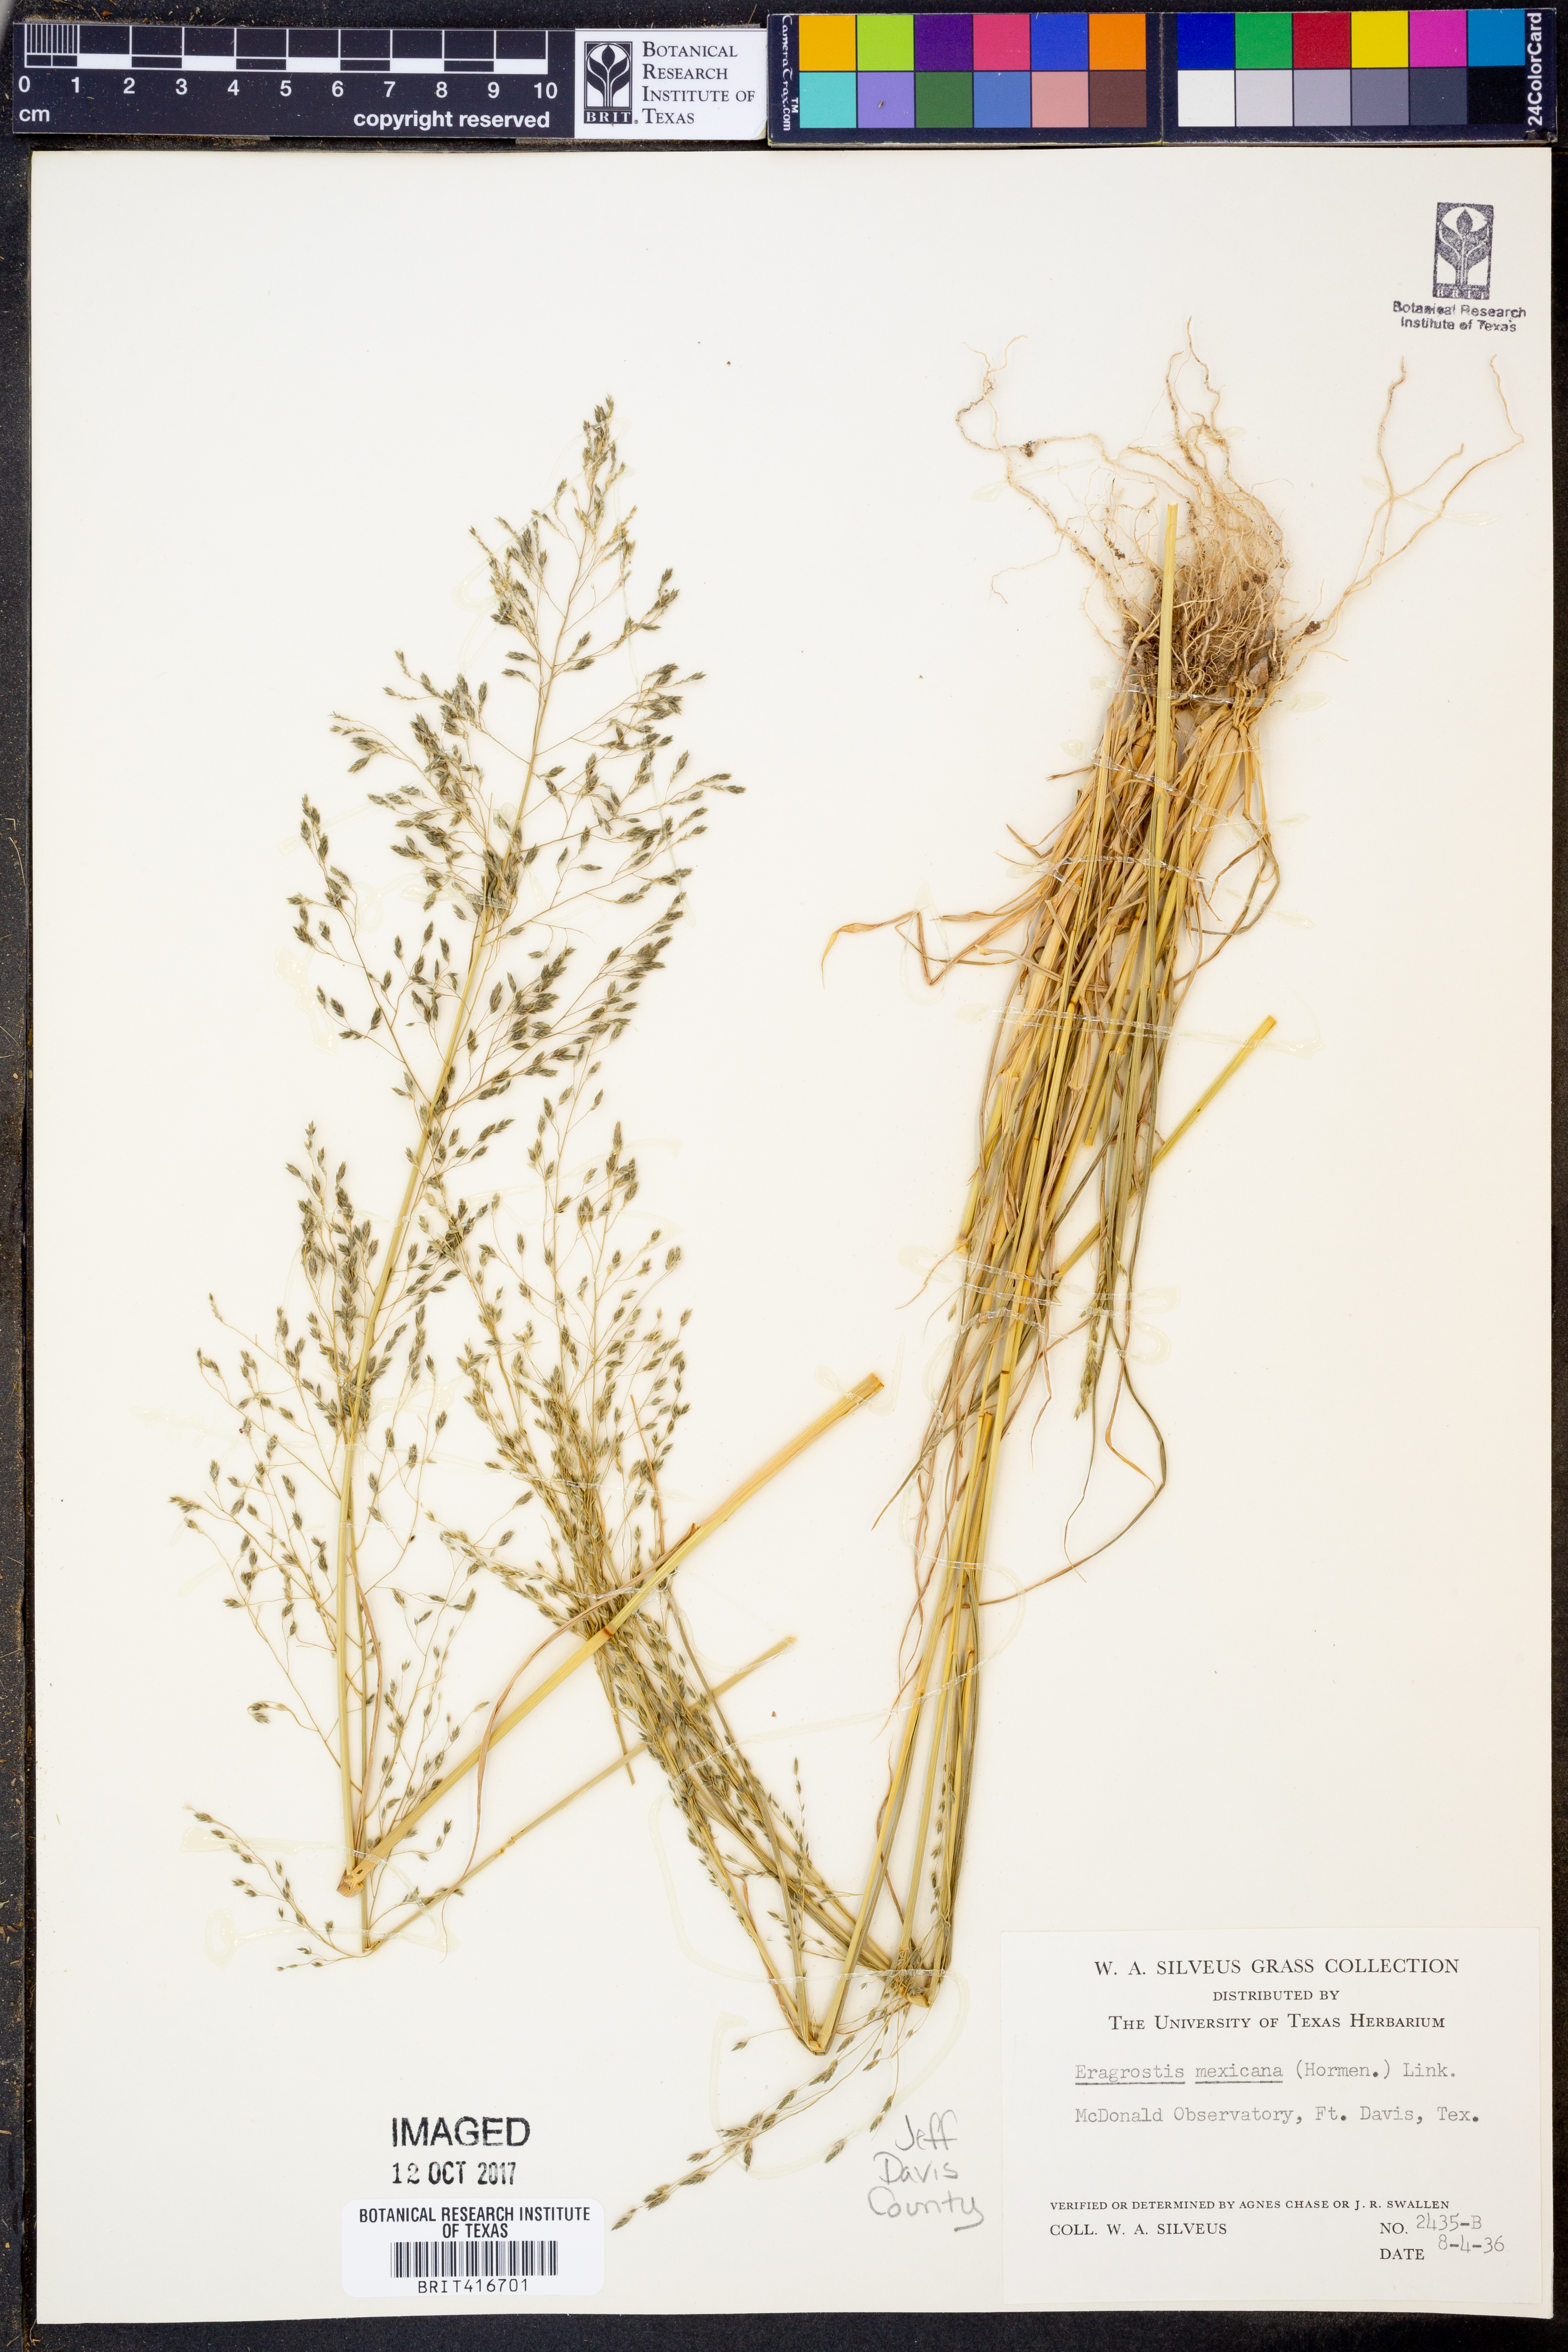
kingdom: Plantae
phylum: Tracheophyta
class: Liliopsida
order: Poales
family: Poaceae
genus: Eragrostis
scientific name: Eragrostis mexicana
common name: Mexican love grass
